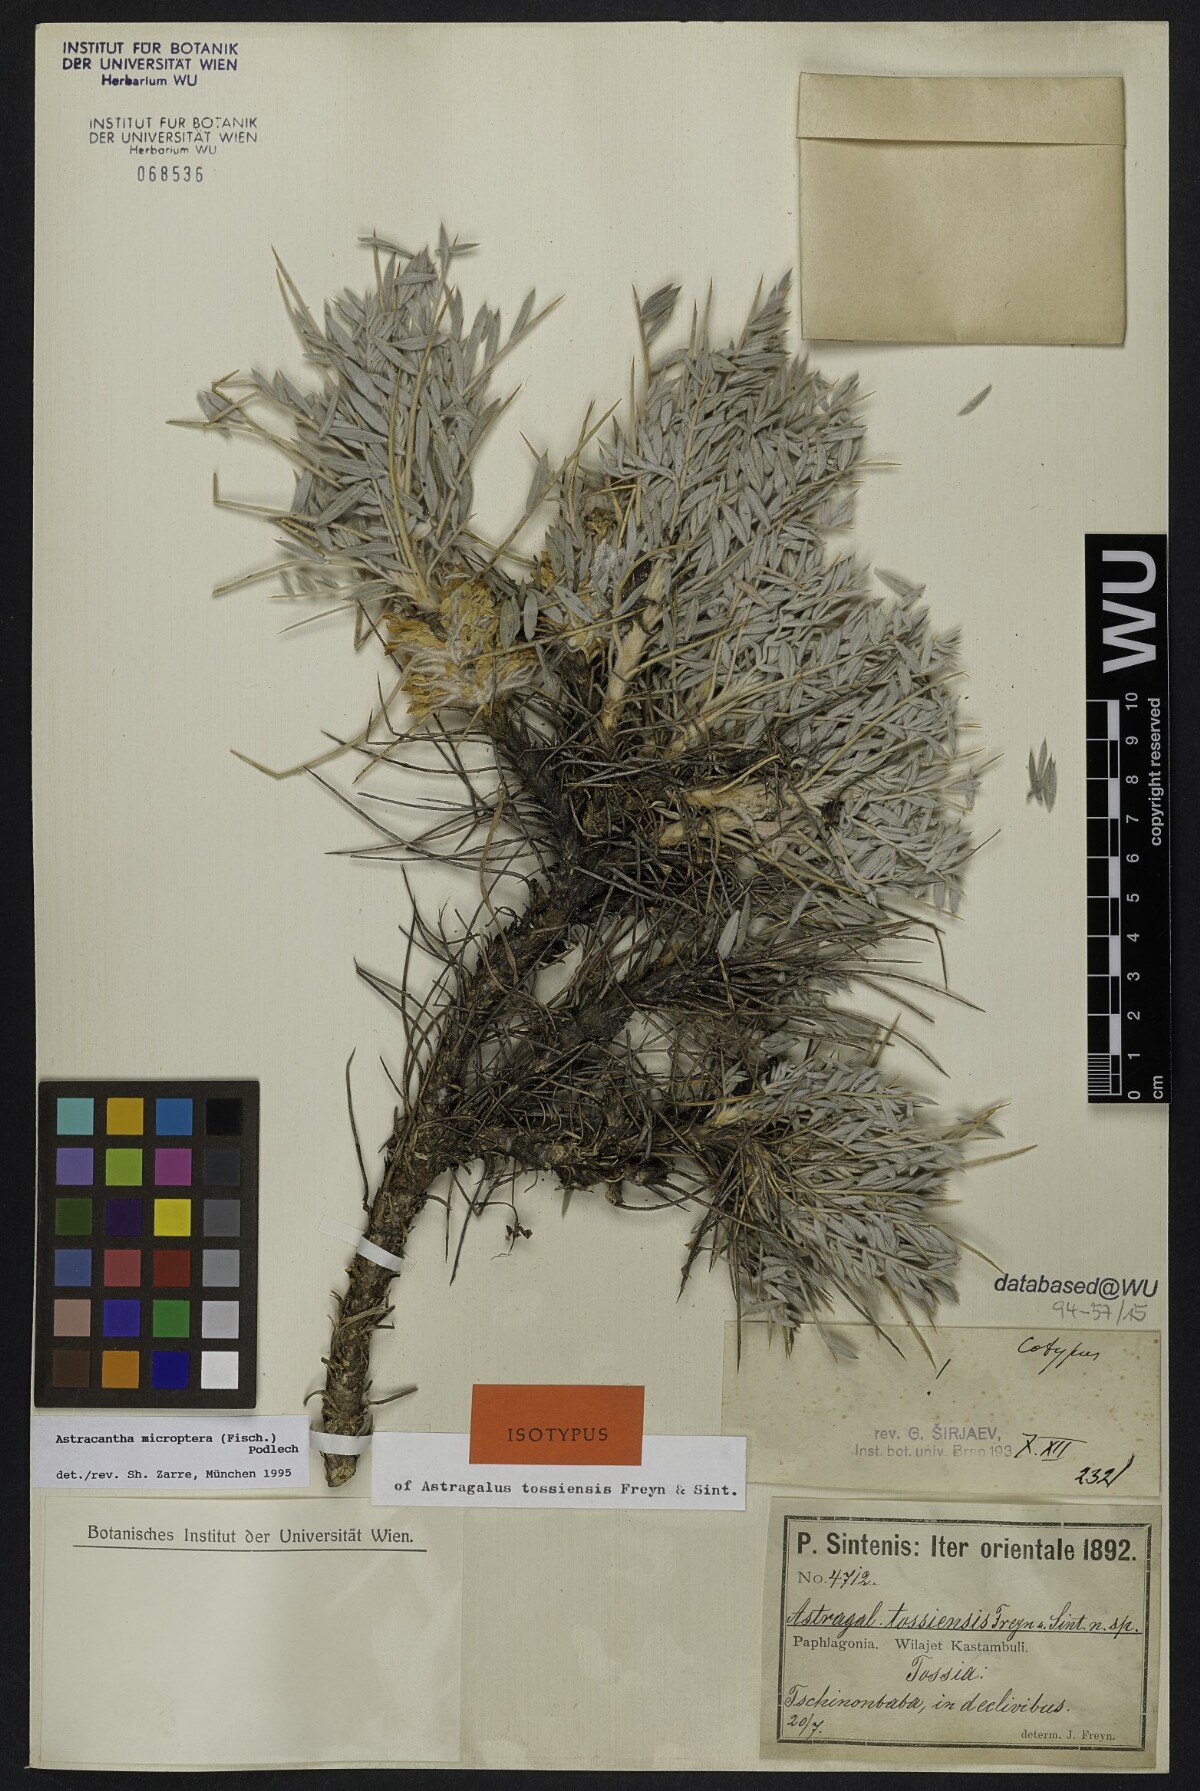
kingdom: Plantae
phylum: Tracheophyta
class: Magnoliopsida
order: Fabales
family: Fabaceae
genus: Astragalus
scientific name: Astragalus micropterus
